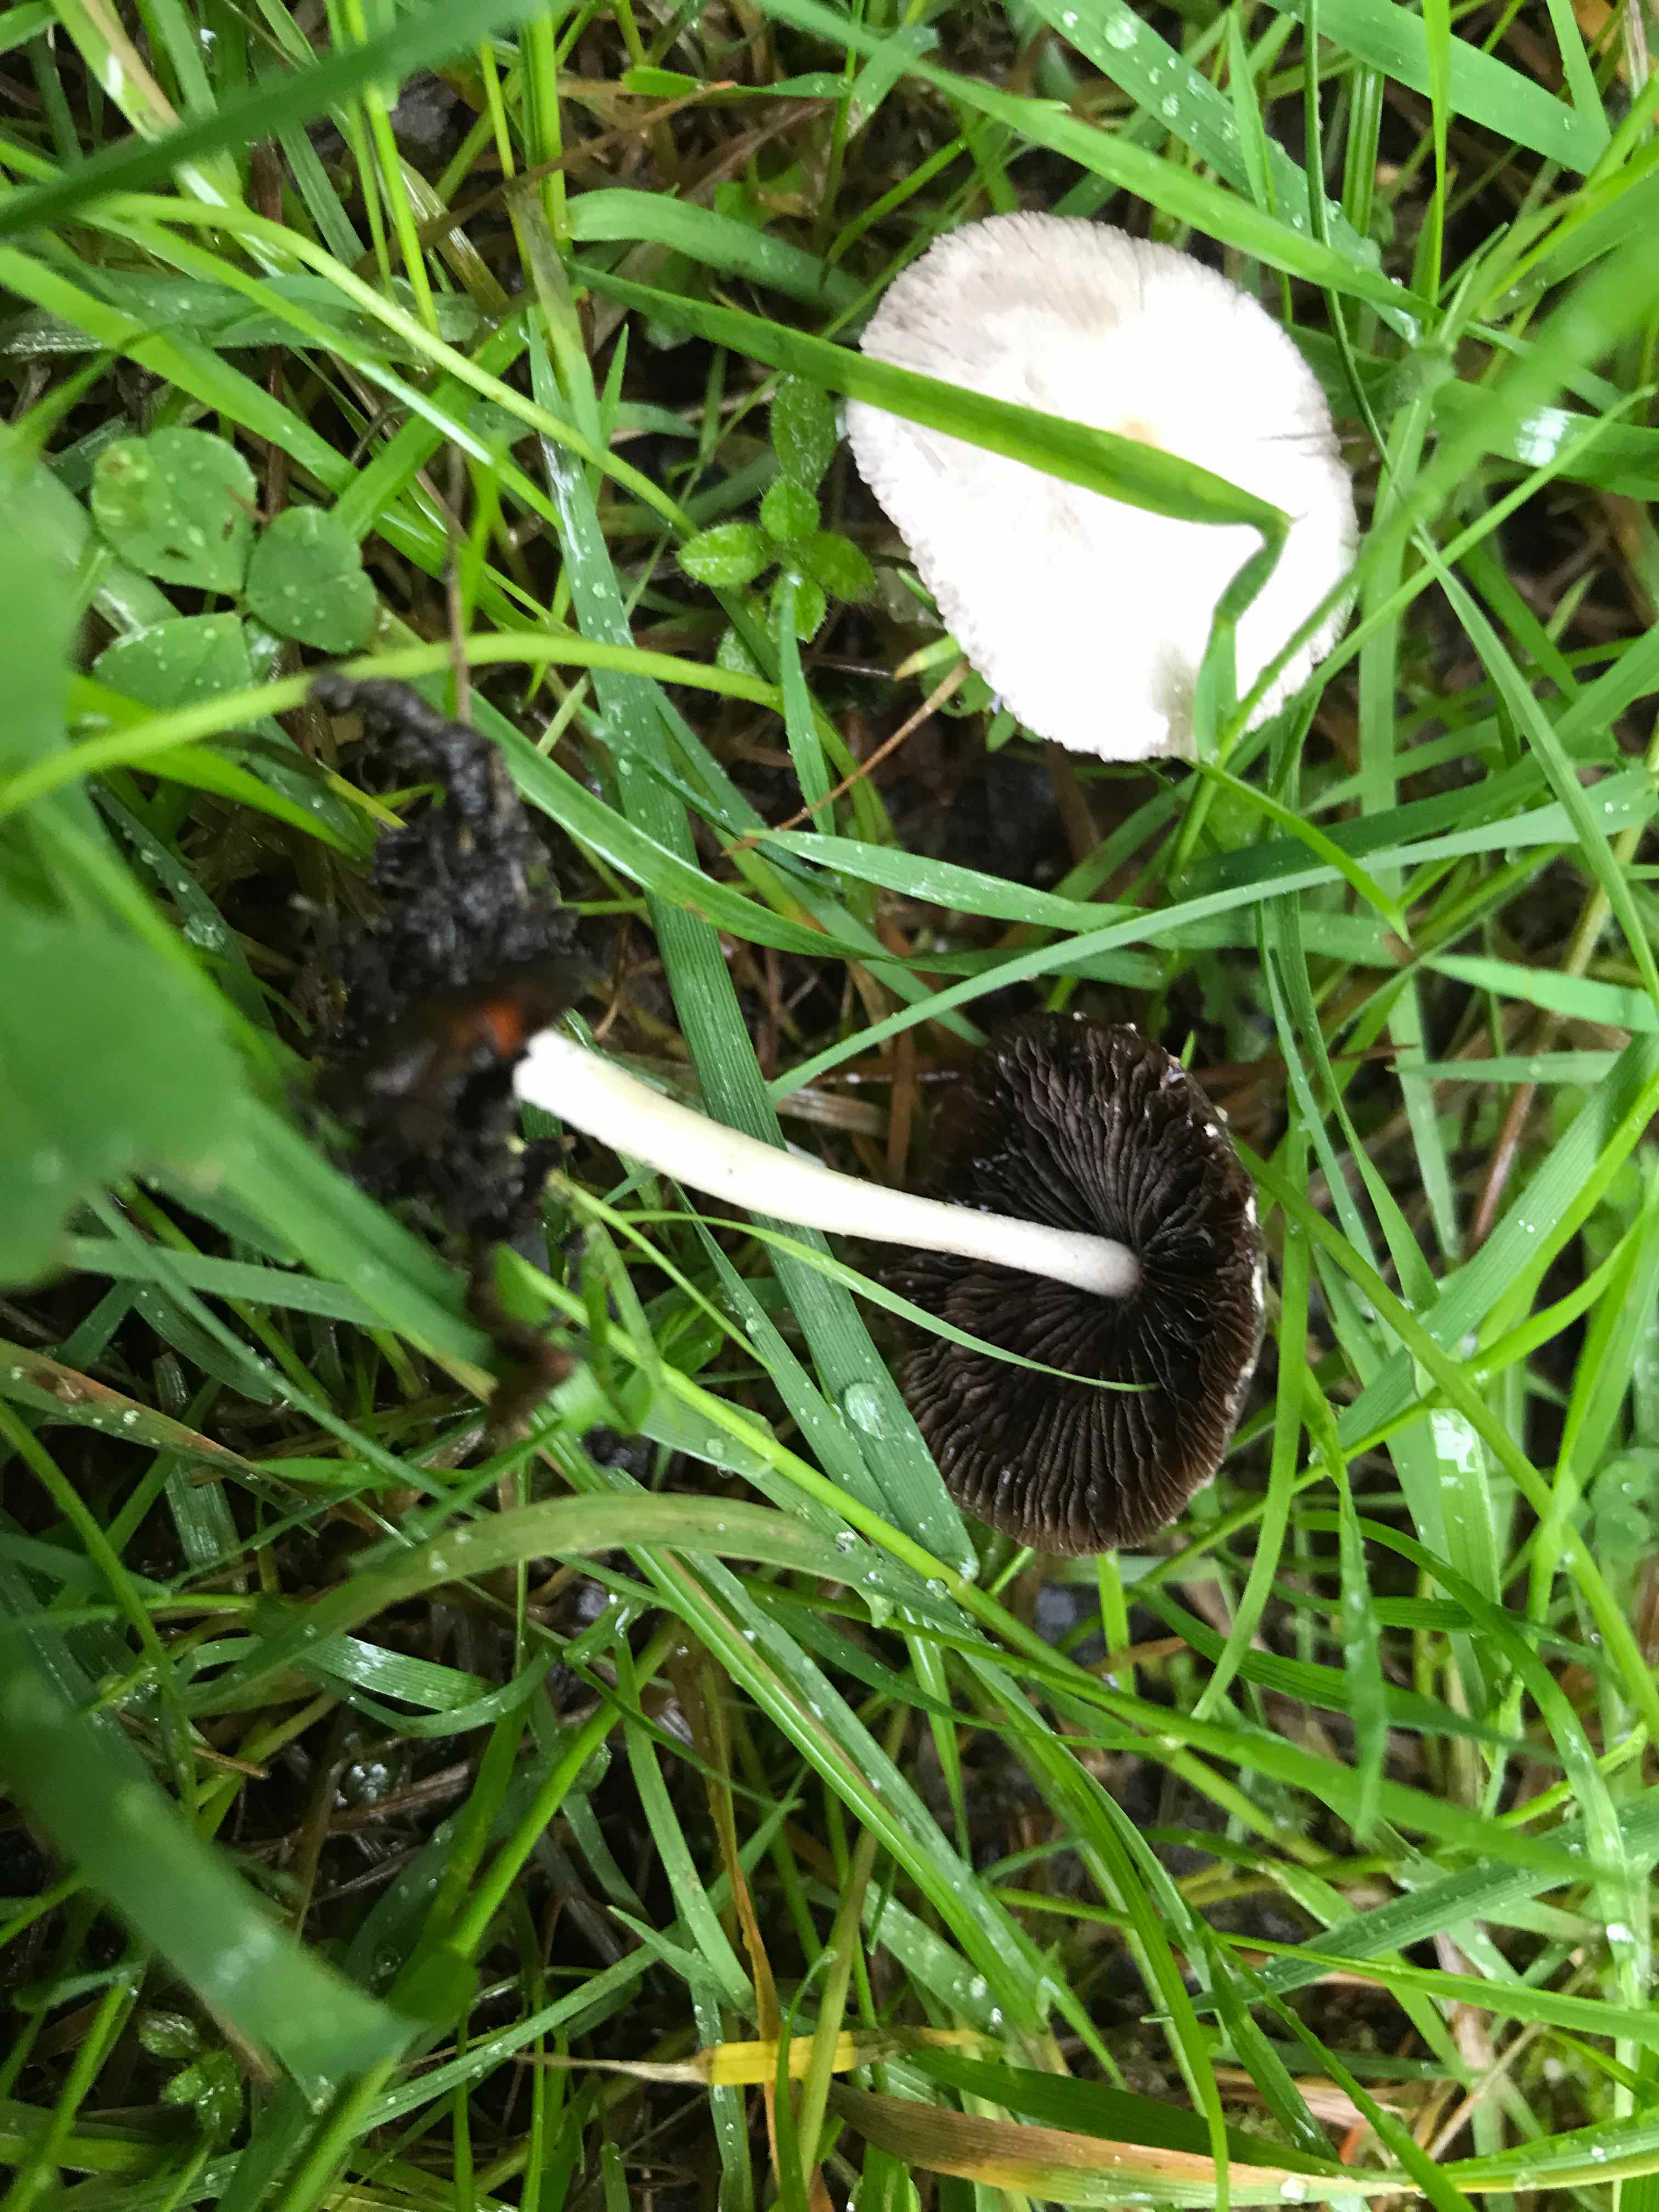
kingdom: Fungi
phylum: Basidiomycota
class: Agaricomycetes
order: Agaricales
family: Psathyrellaceae
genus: Psathyrella
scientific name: Psathyrella
